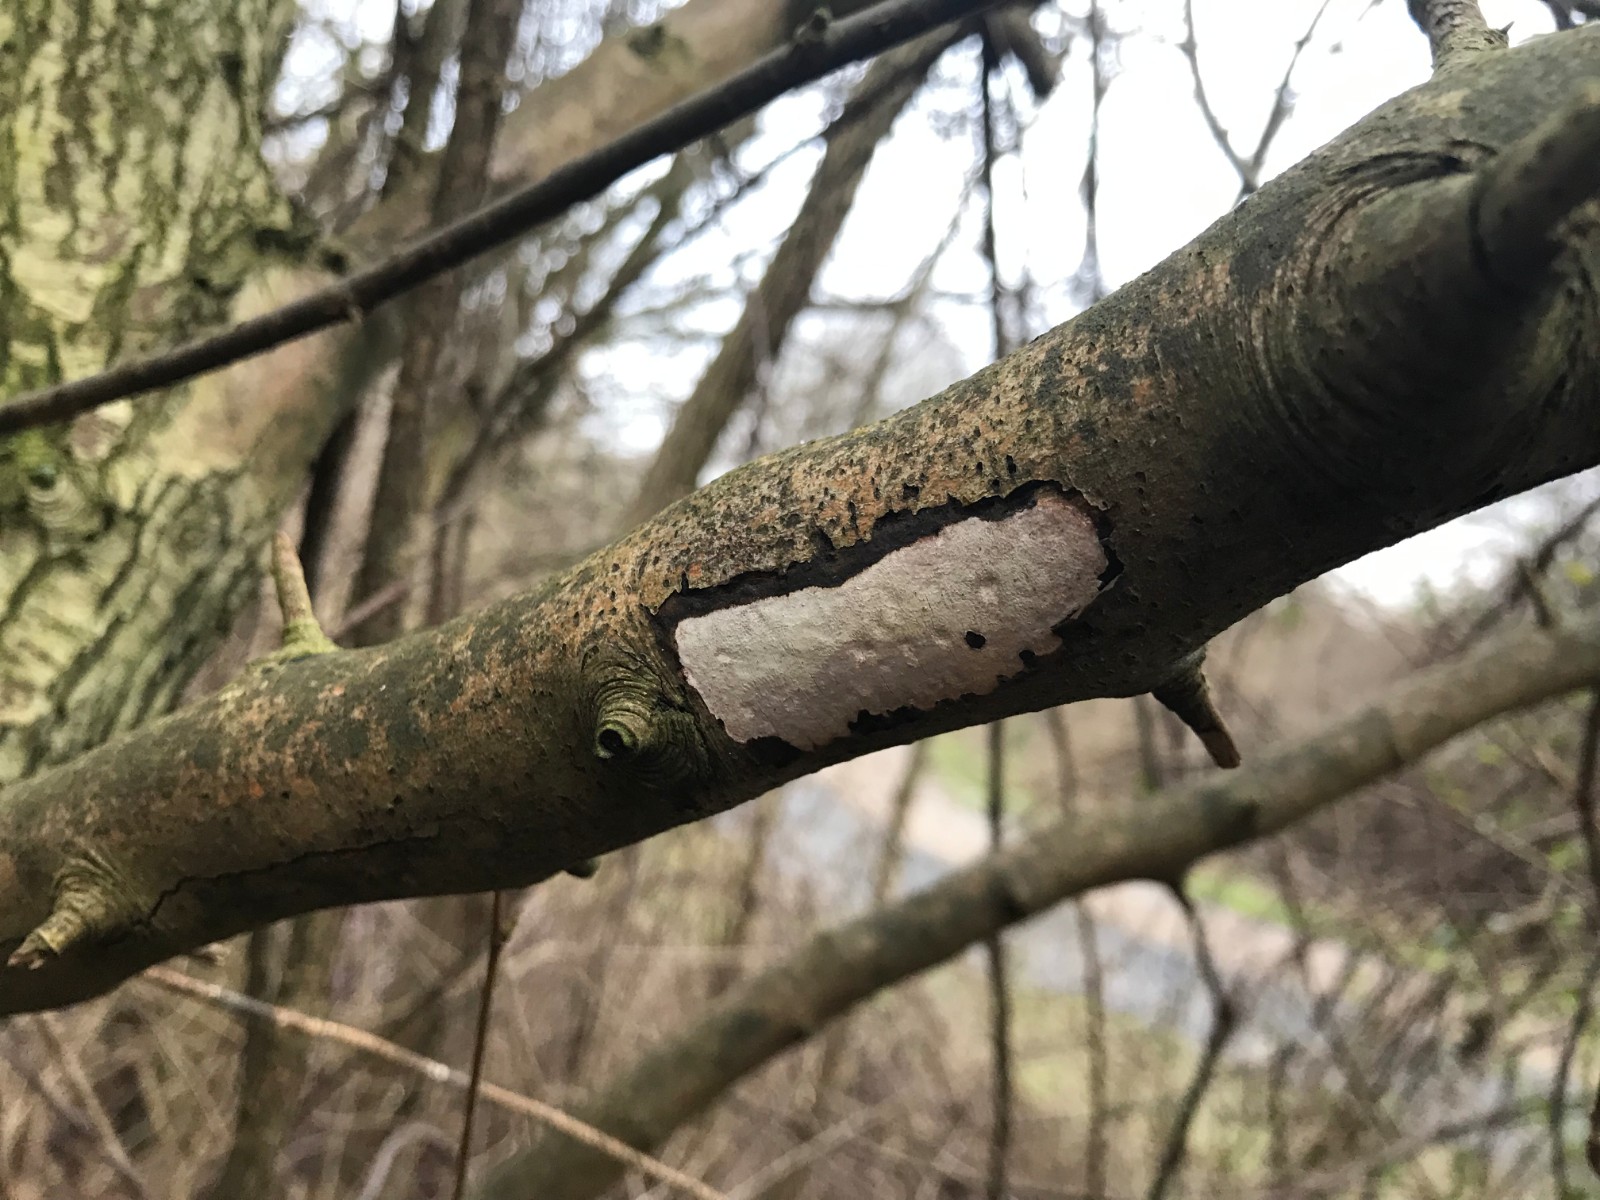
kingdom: Fungi
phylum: Basidiomycota
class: Agaricomycetes
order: Corticiales
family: Vuilleminiaceae
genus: Vuilleminia
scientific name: Vuilleminia cystidiata
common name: tjørne-barksprænger
